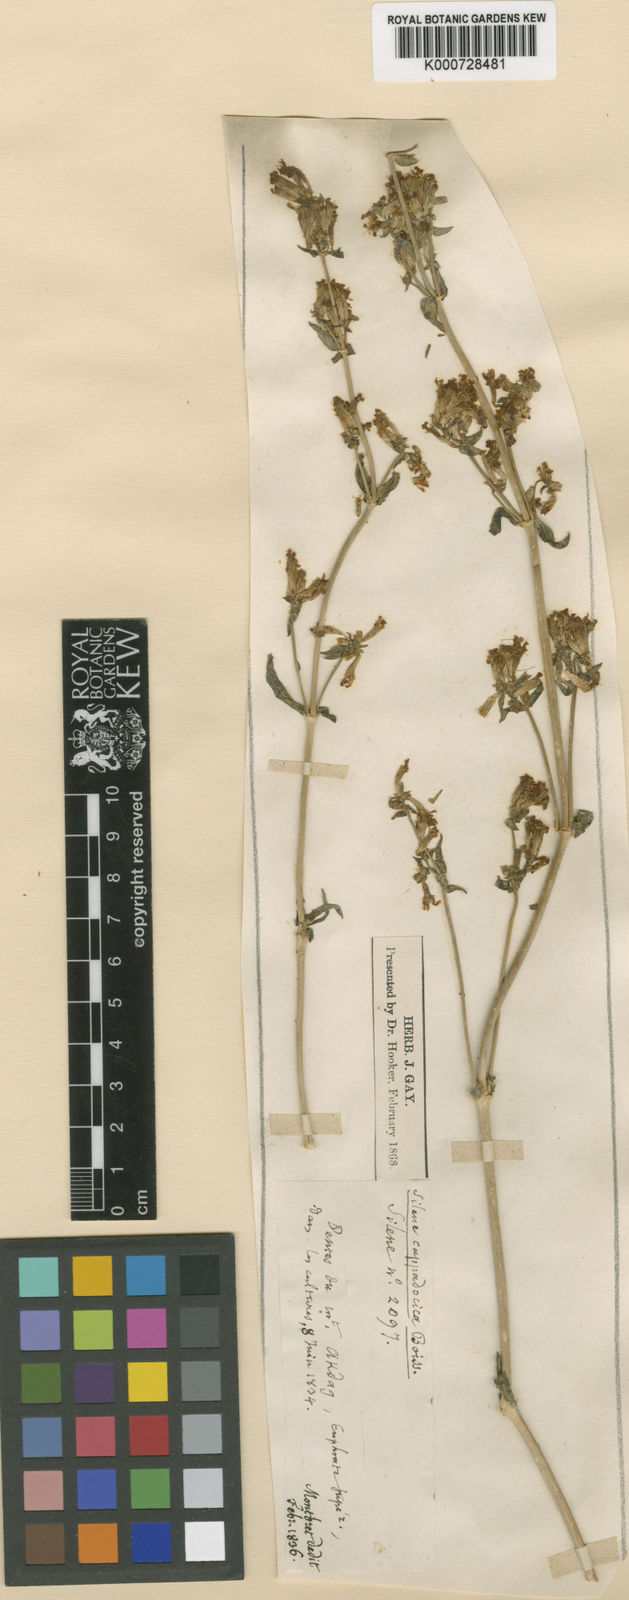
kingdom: Plantae
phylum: Tracheophyta
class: Magnoliopsida
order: Caryophyllales
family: Caryophyllaceae
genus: Silene
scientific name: Silene cappadocica
